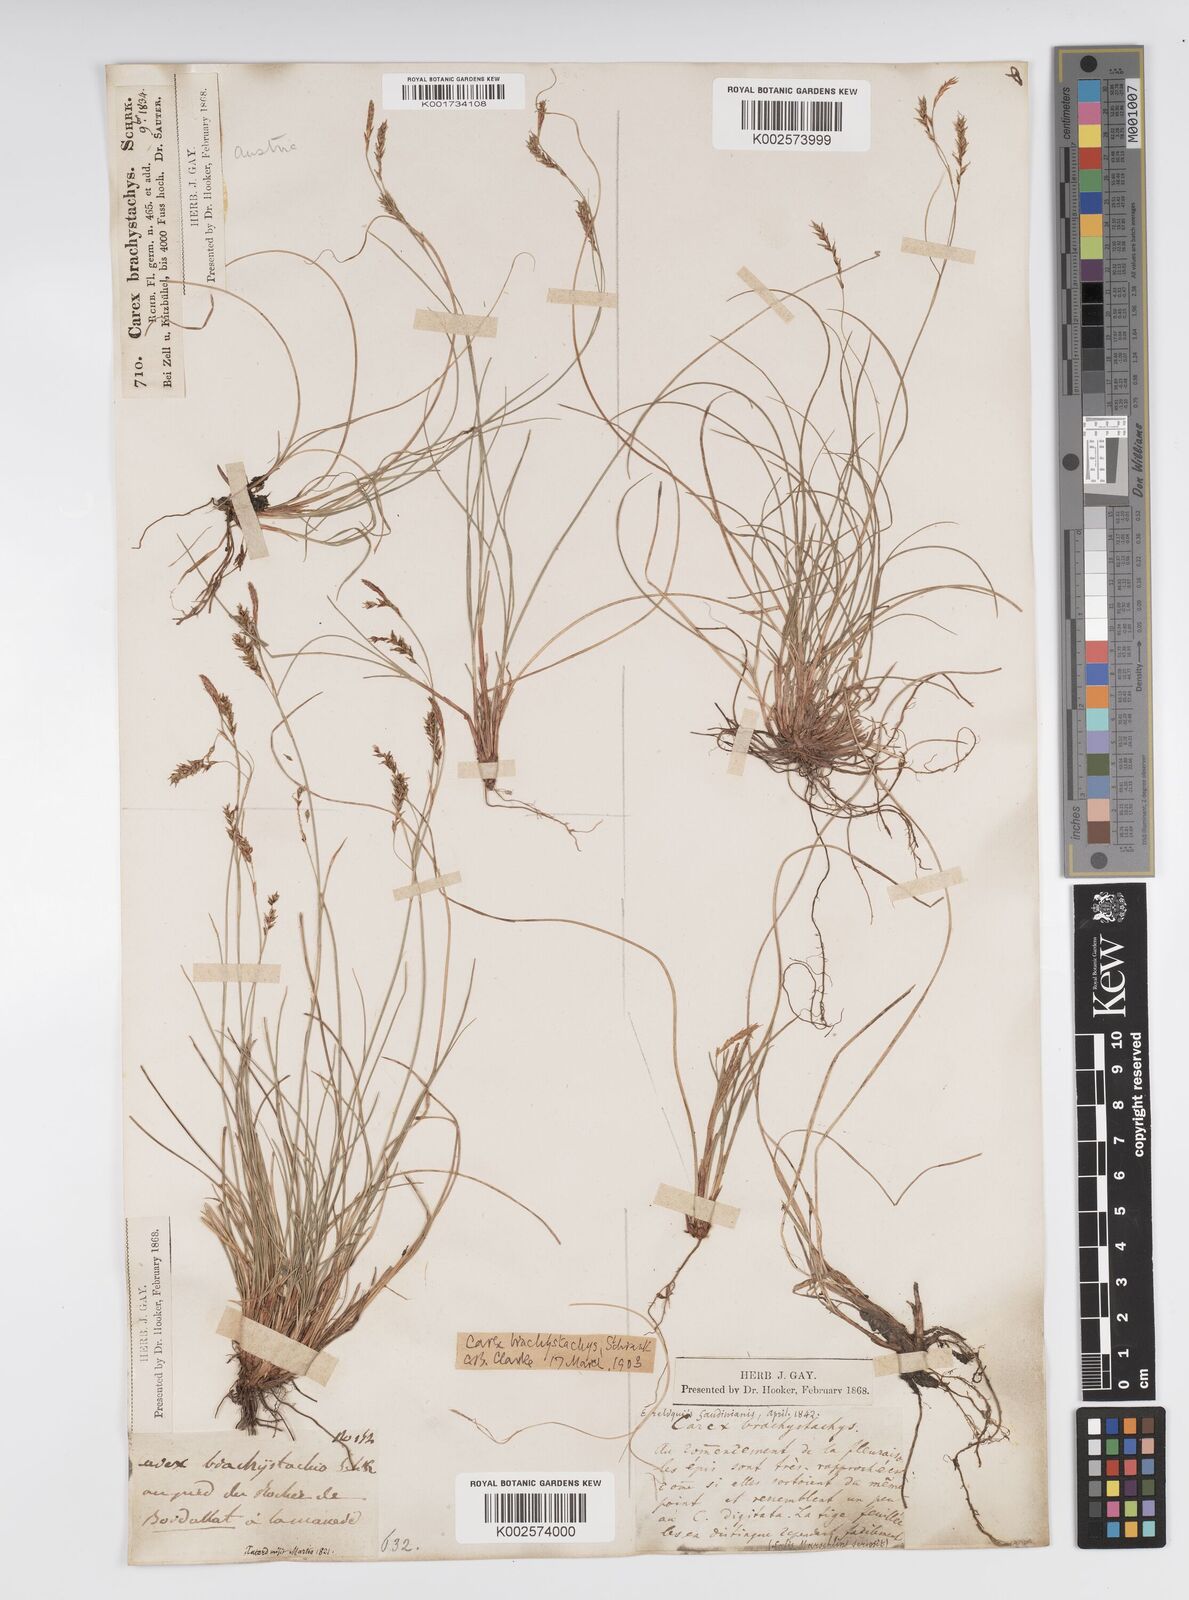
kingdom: Plantae
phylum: Tracheophyta
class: Liliopsida
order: Poales
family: Cyperaceae
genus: Carex
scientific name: Carex brachystachys
